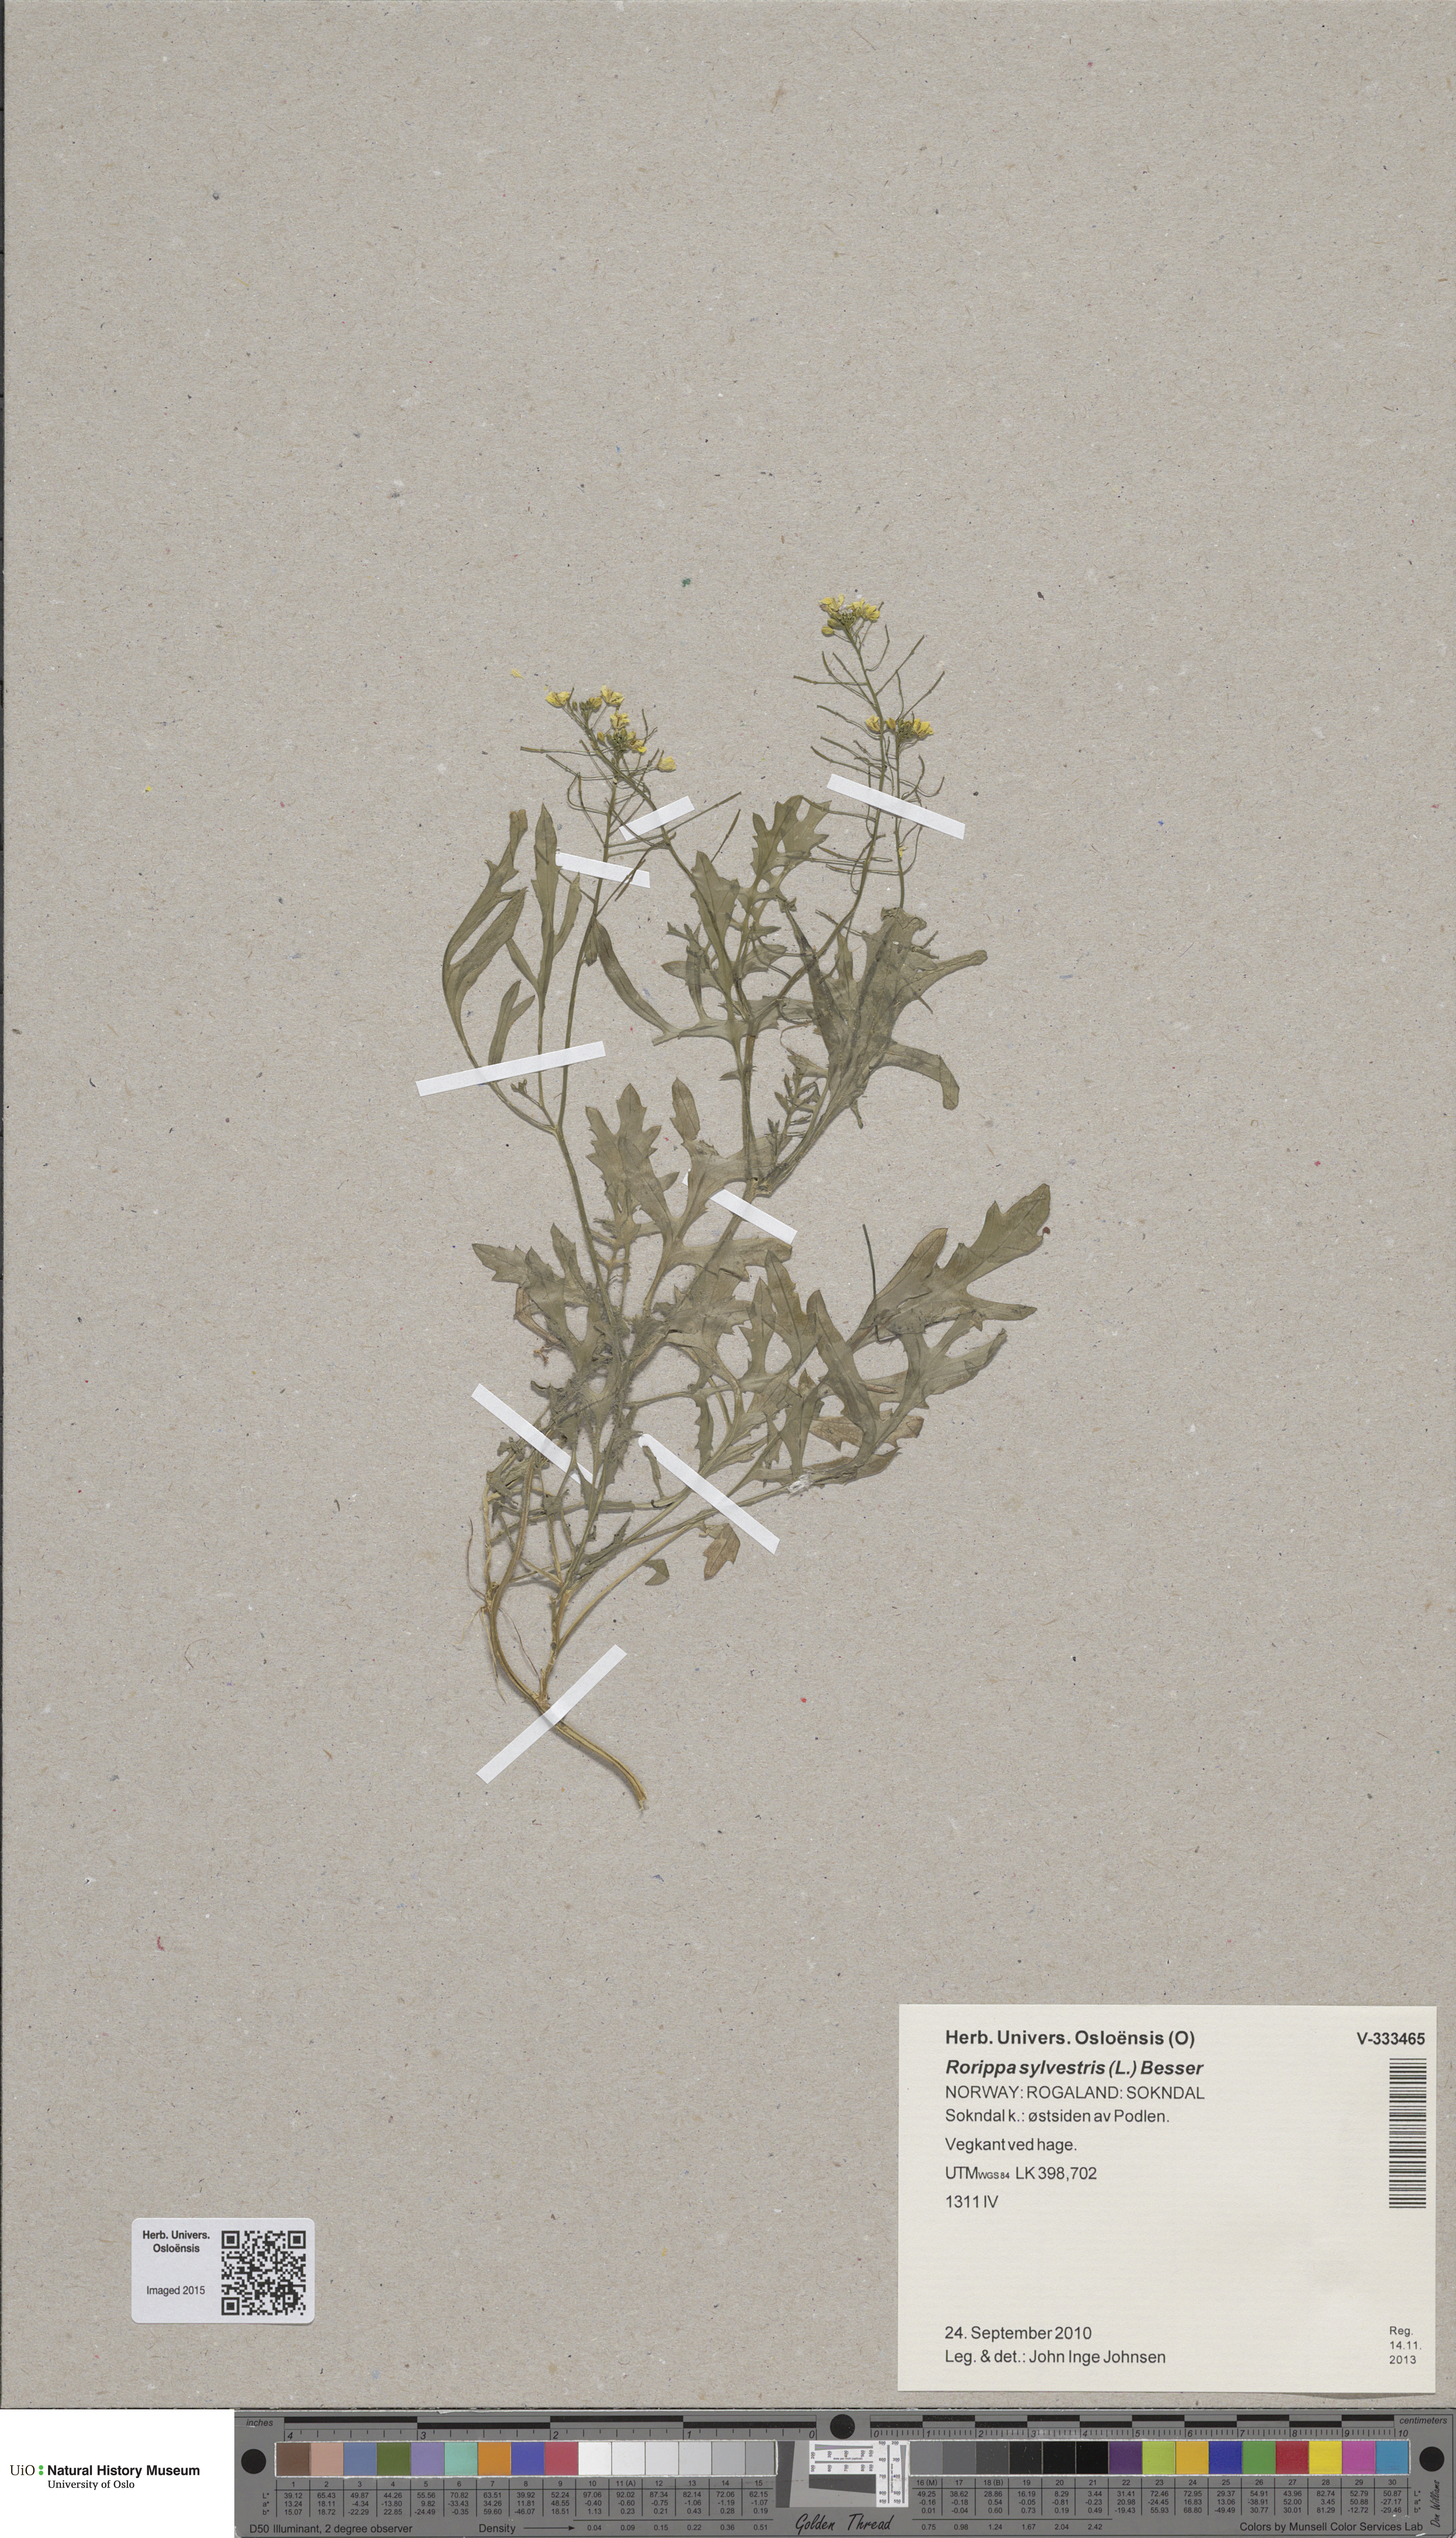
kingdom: Plantae
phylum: Tracheophyta
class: Magnoliopsida
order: Brassicales
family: Brassicaceae
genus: Rorippa
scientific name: Rorippa sylvestris
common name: Creeping yellowcress
